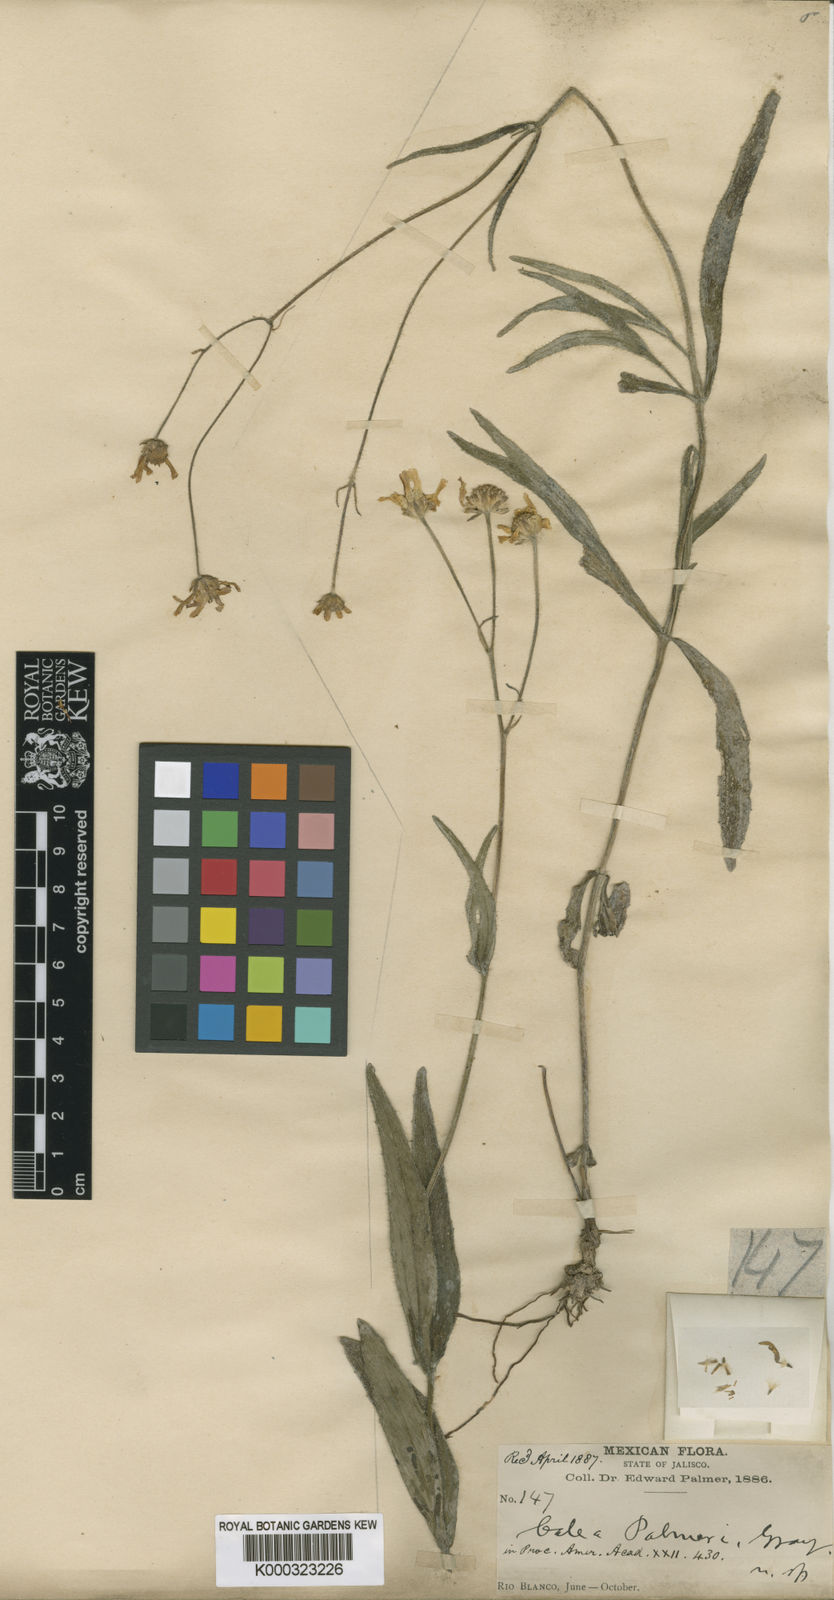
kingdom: Plantae
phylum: Tracheophyta
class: Magnoliopsida
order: Asterales
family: Asteraceae
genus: Alloispermum
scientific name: Alloispermum palmeri
